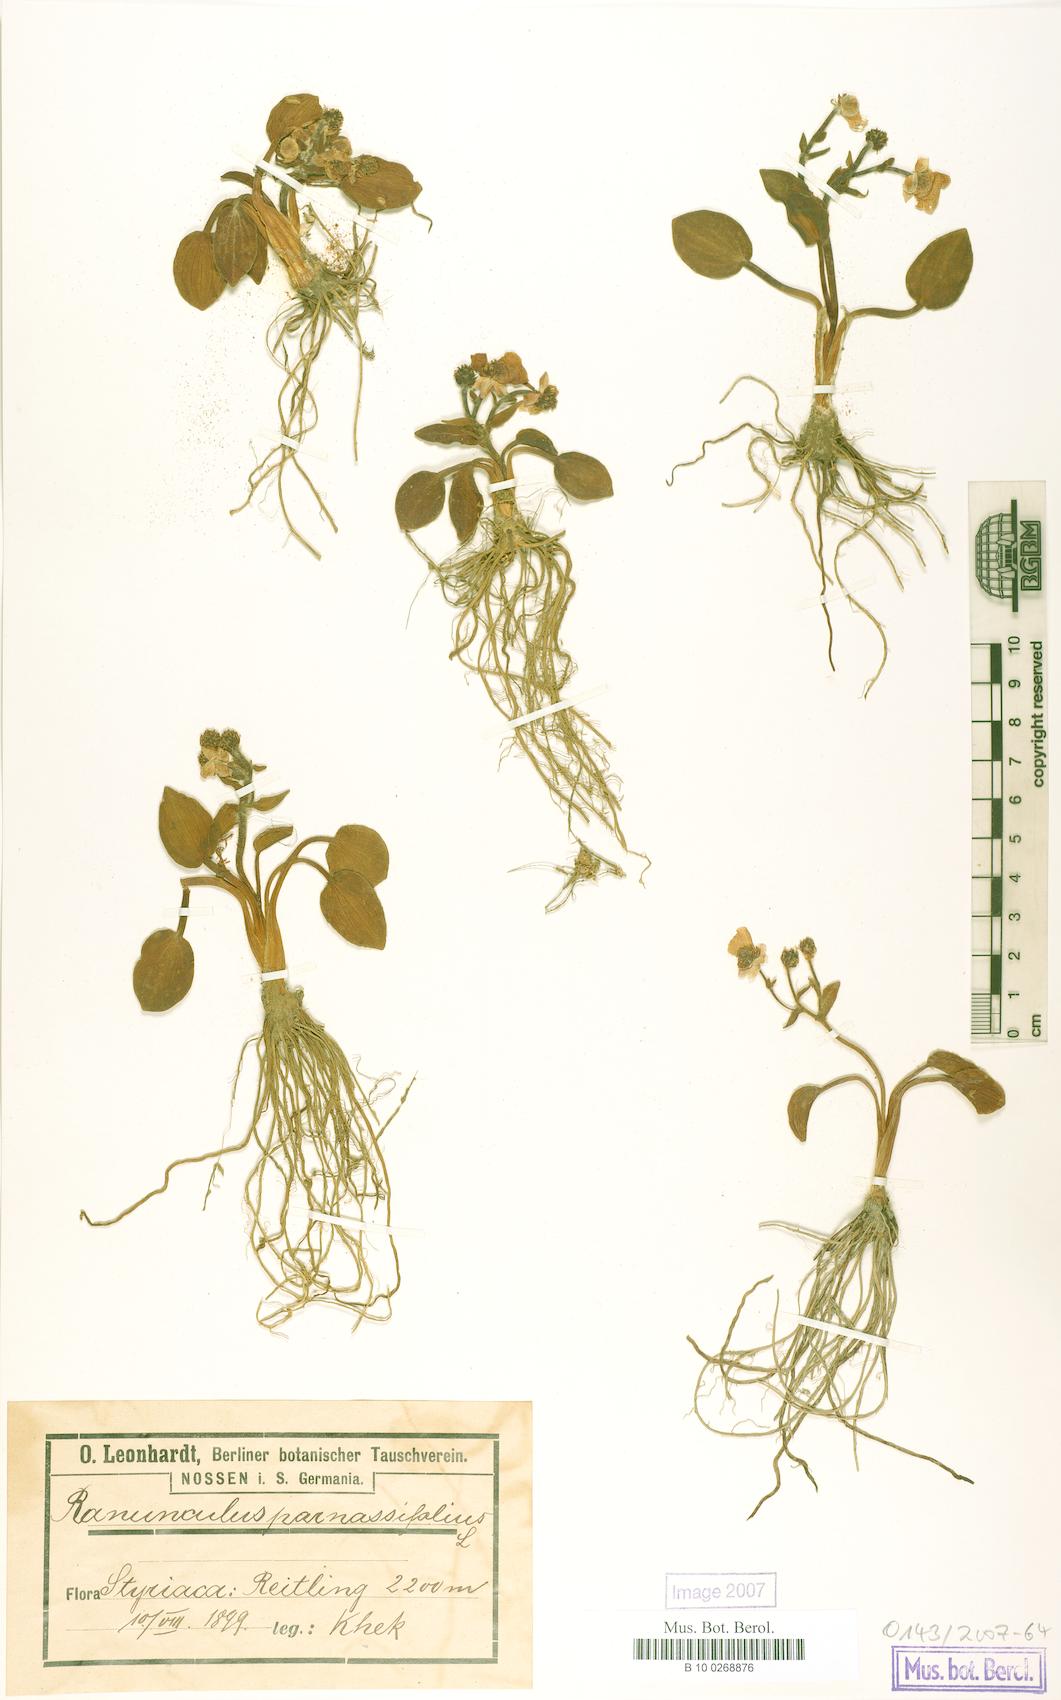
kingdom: Plantae
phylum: Tracheophyta
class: Magnoliopsida
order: Ranunculales
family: Ranunculaceae
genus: Ranunculus
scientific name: Ranunculus parnassiifolius
